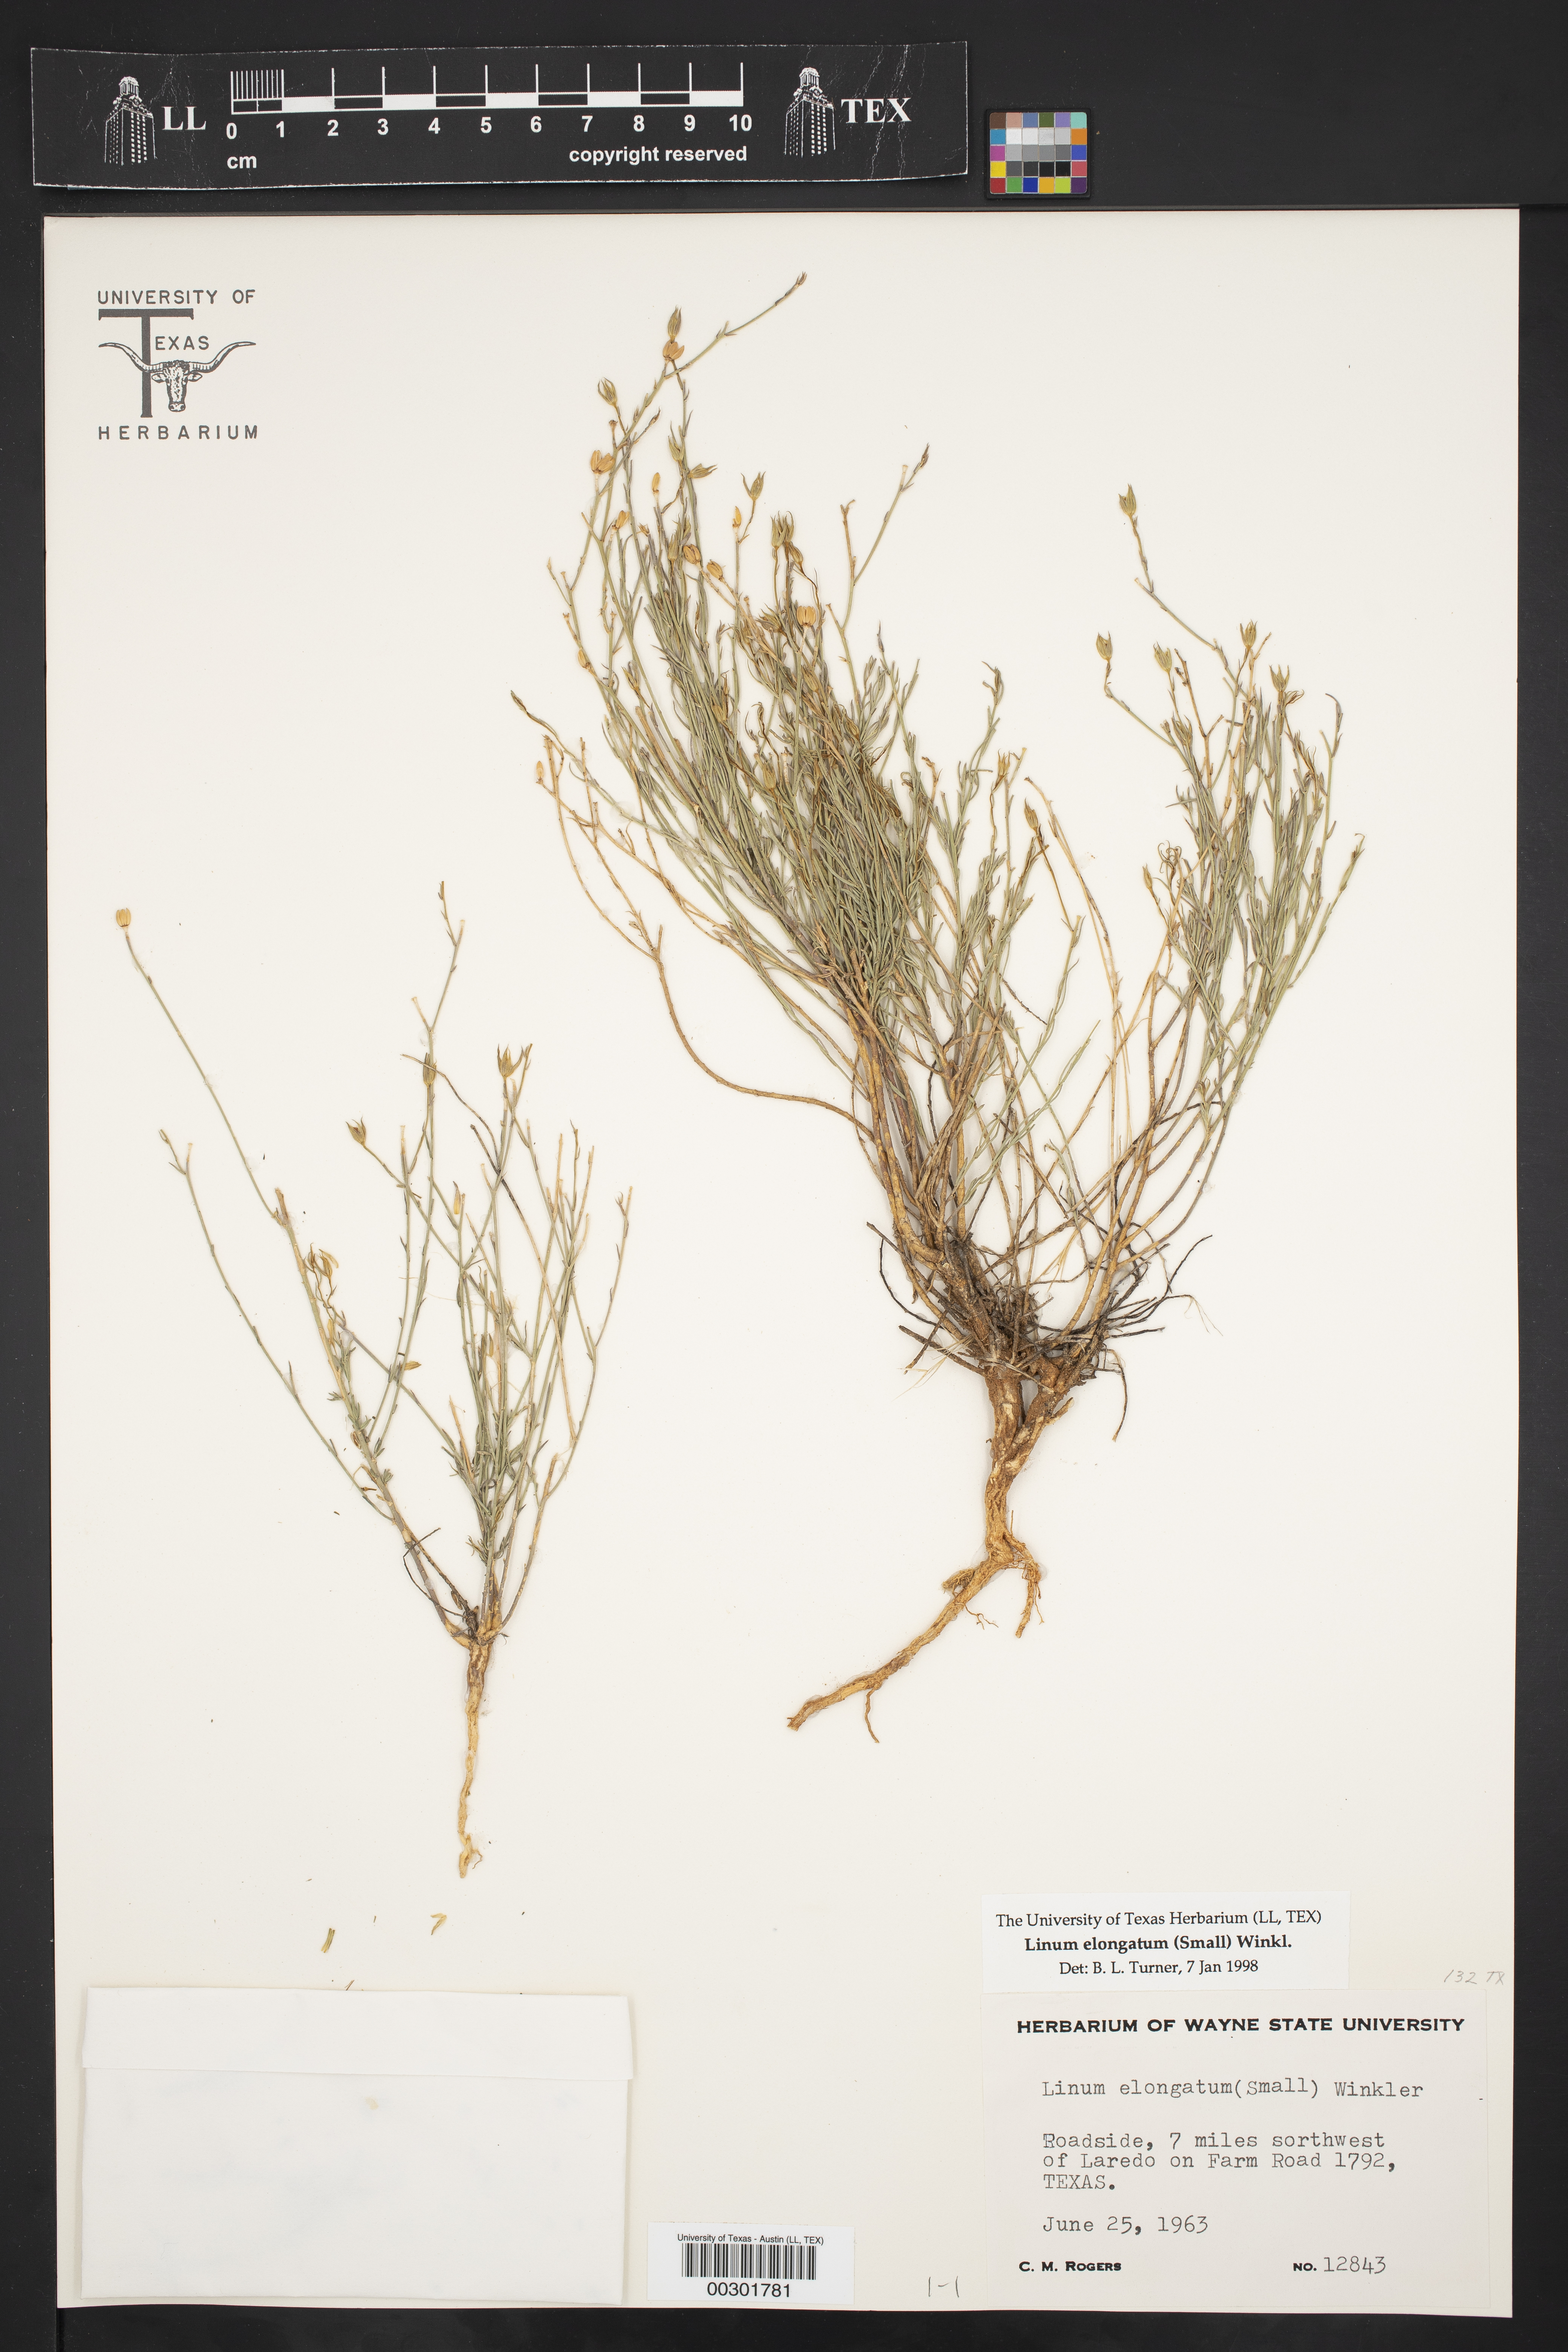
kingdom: Plantae
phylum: Tracheophyta
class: Magnoliopsida
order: Malpighiales
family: Linaceae
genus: Linum
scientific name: Linum elongatum
